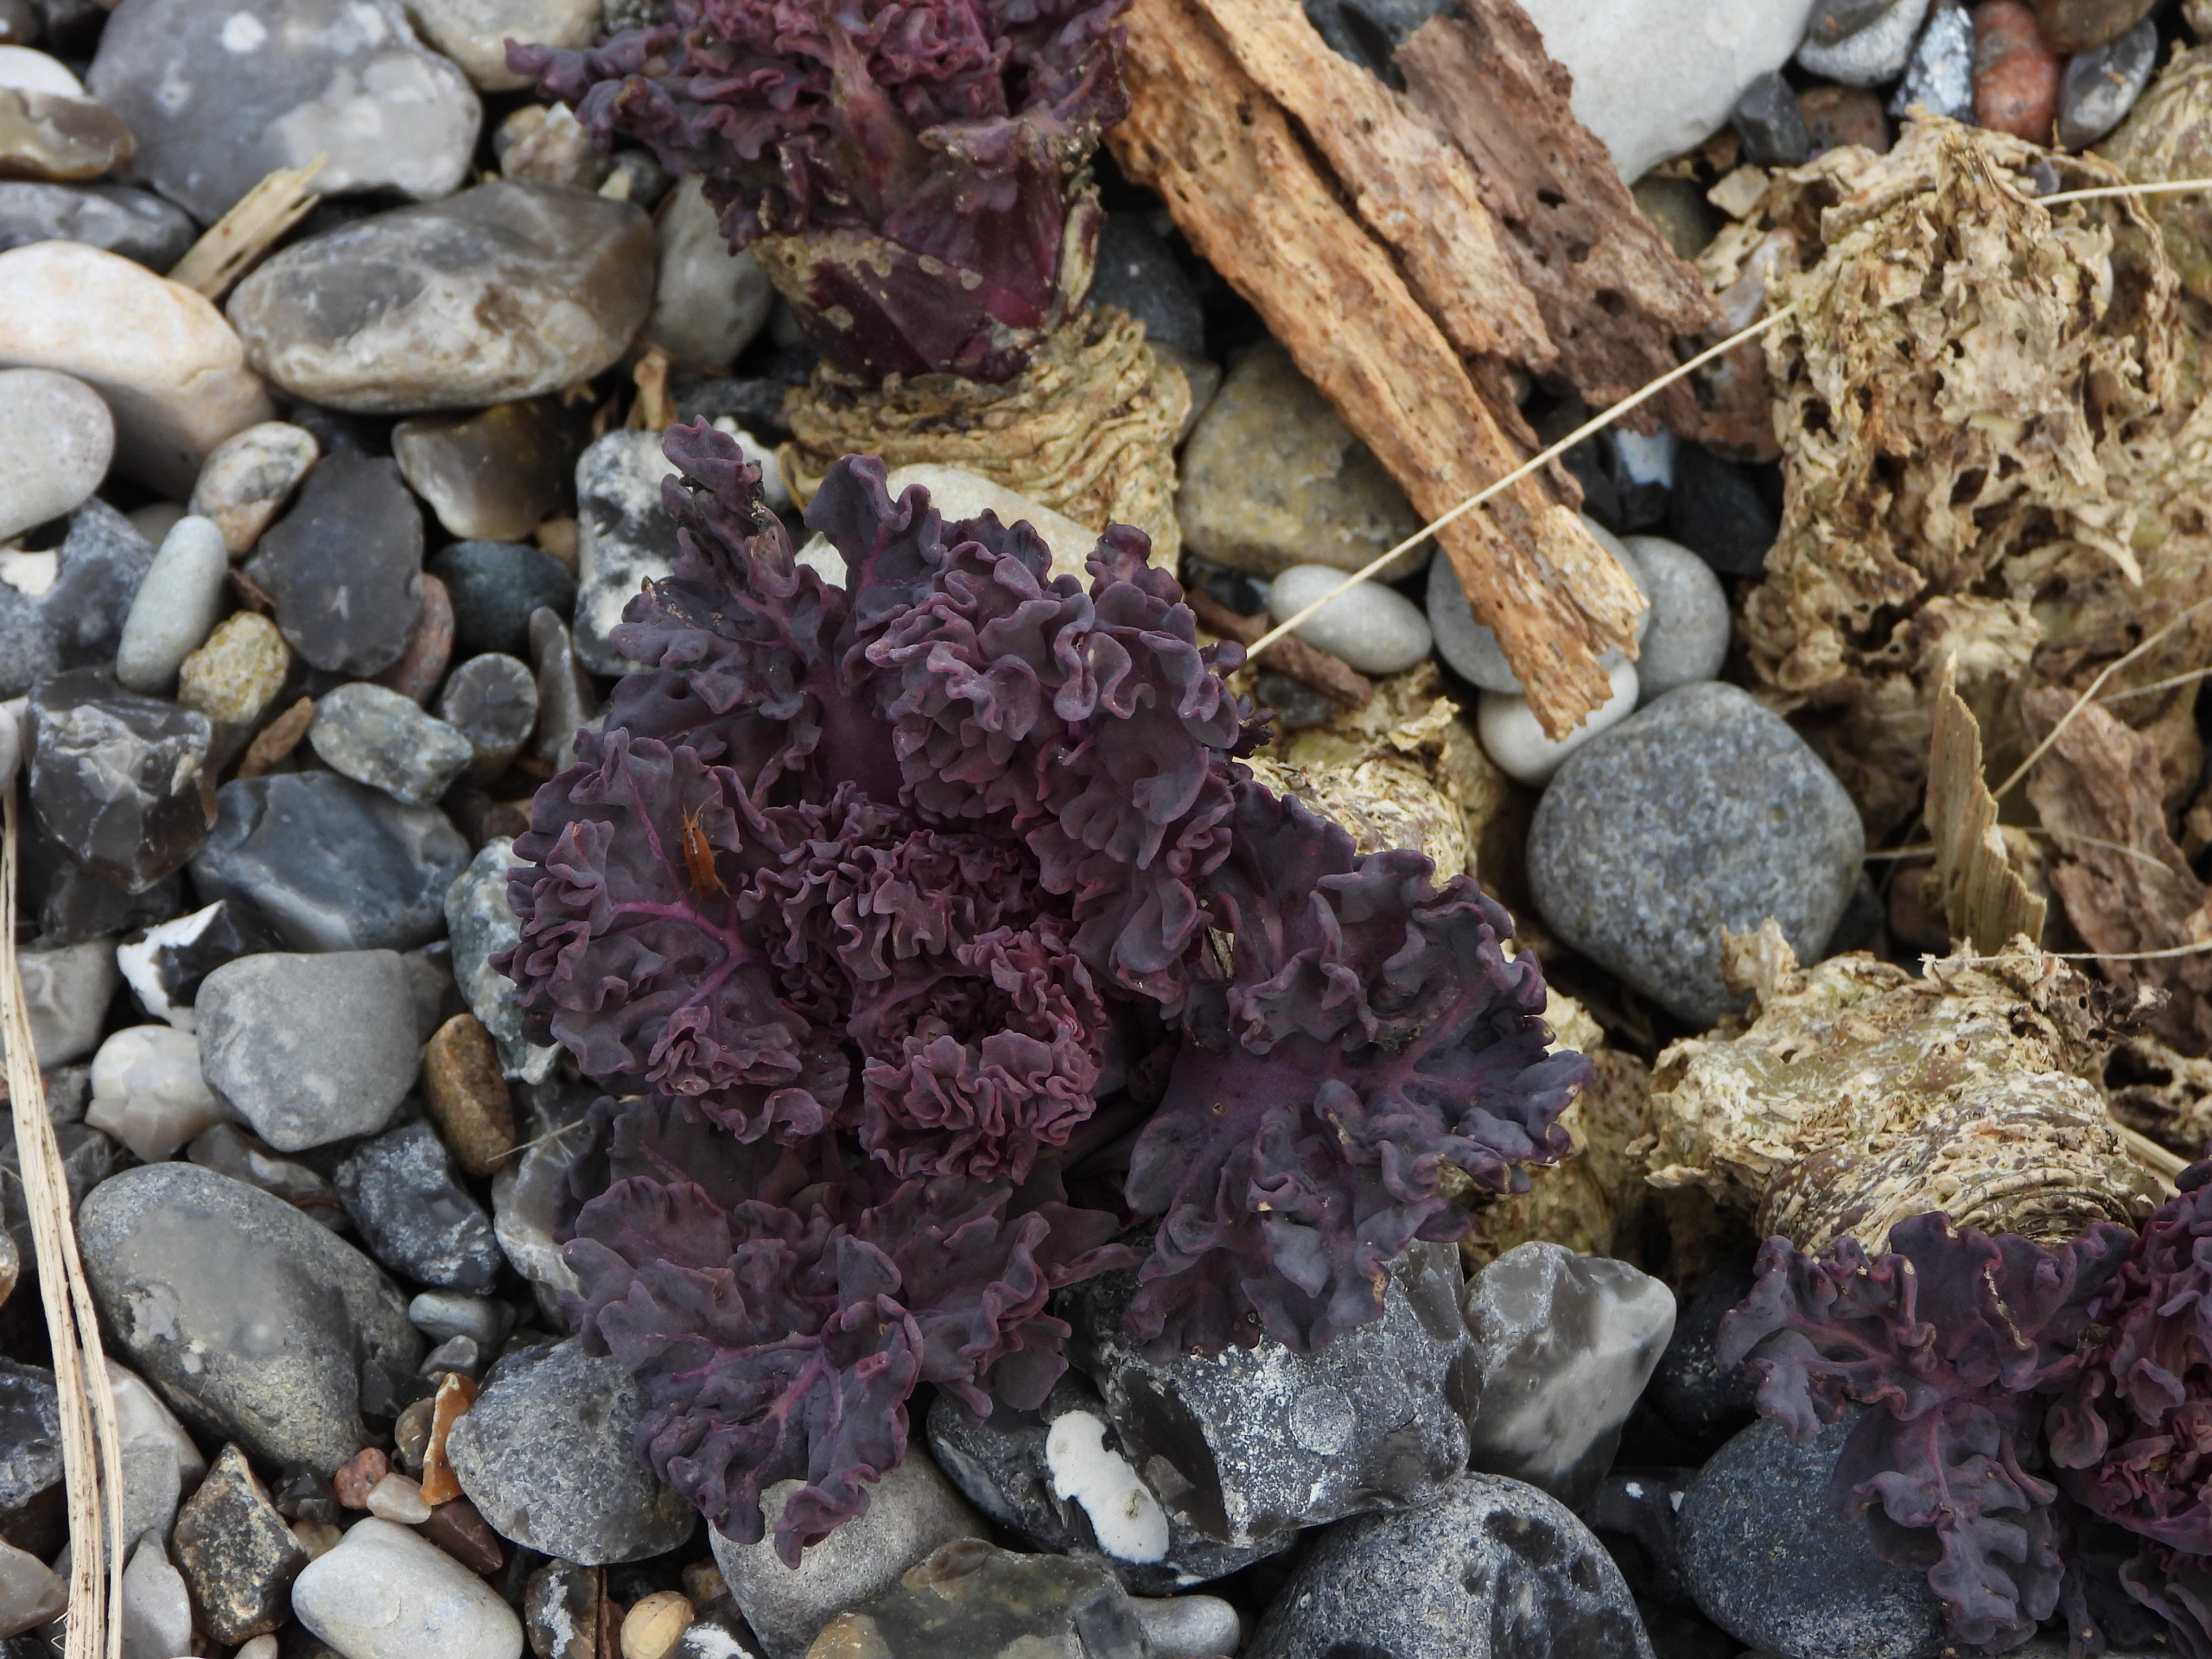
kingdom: Plantae
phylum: Tracheophyta
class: Magnoliopsida
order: Brassicales
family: Brassicaceae
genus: Crambe
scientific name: Crambe maritima
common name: Strandkål
